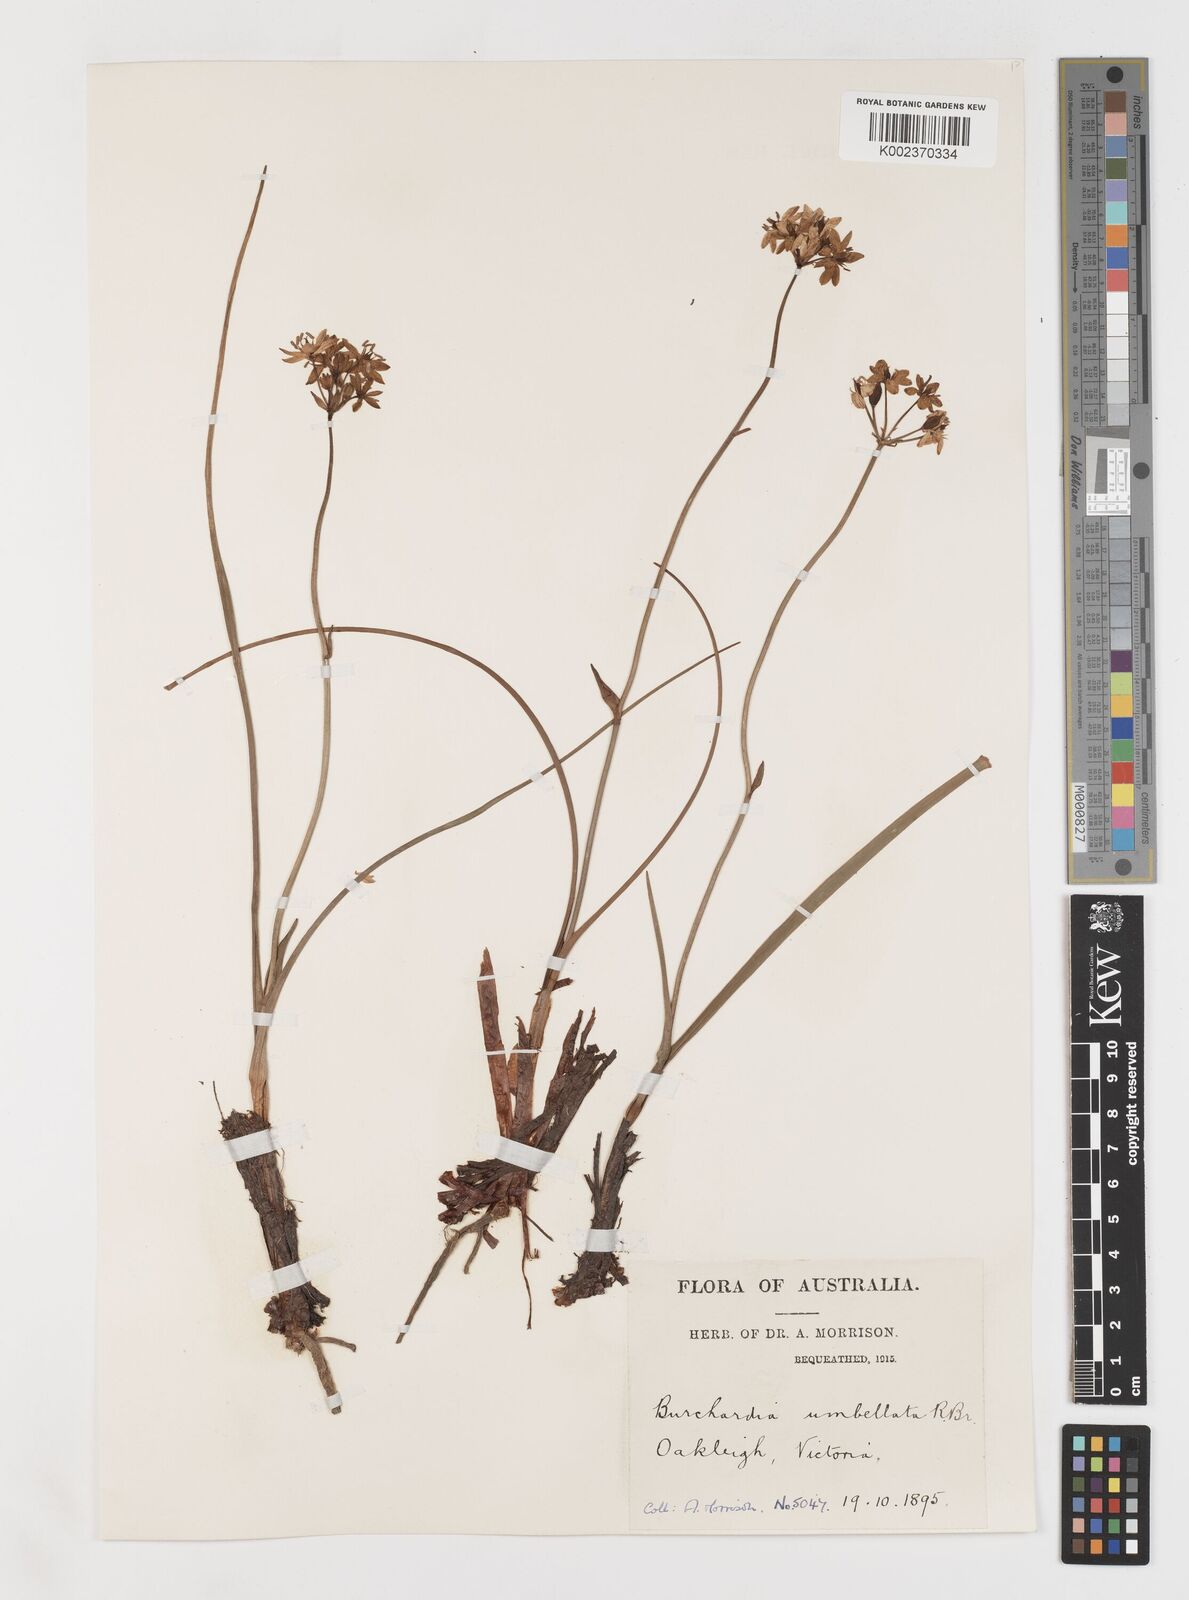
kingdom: Plantae
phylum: Tracheophyta
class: Liliopsida
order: Liliales
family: Colchicaceae
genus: Burchardia
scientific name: Burchardia umbellata
